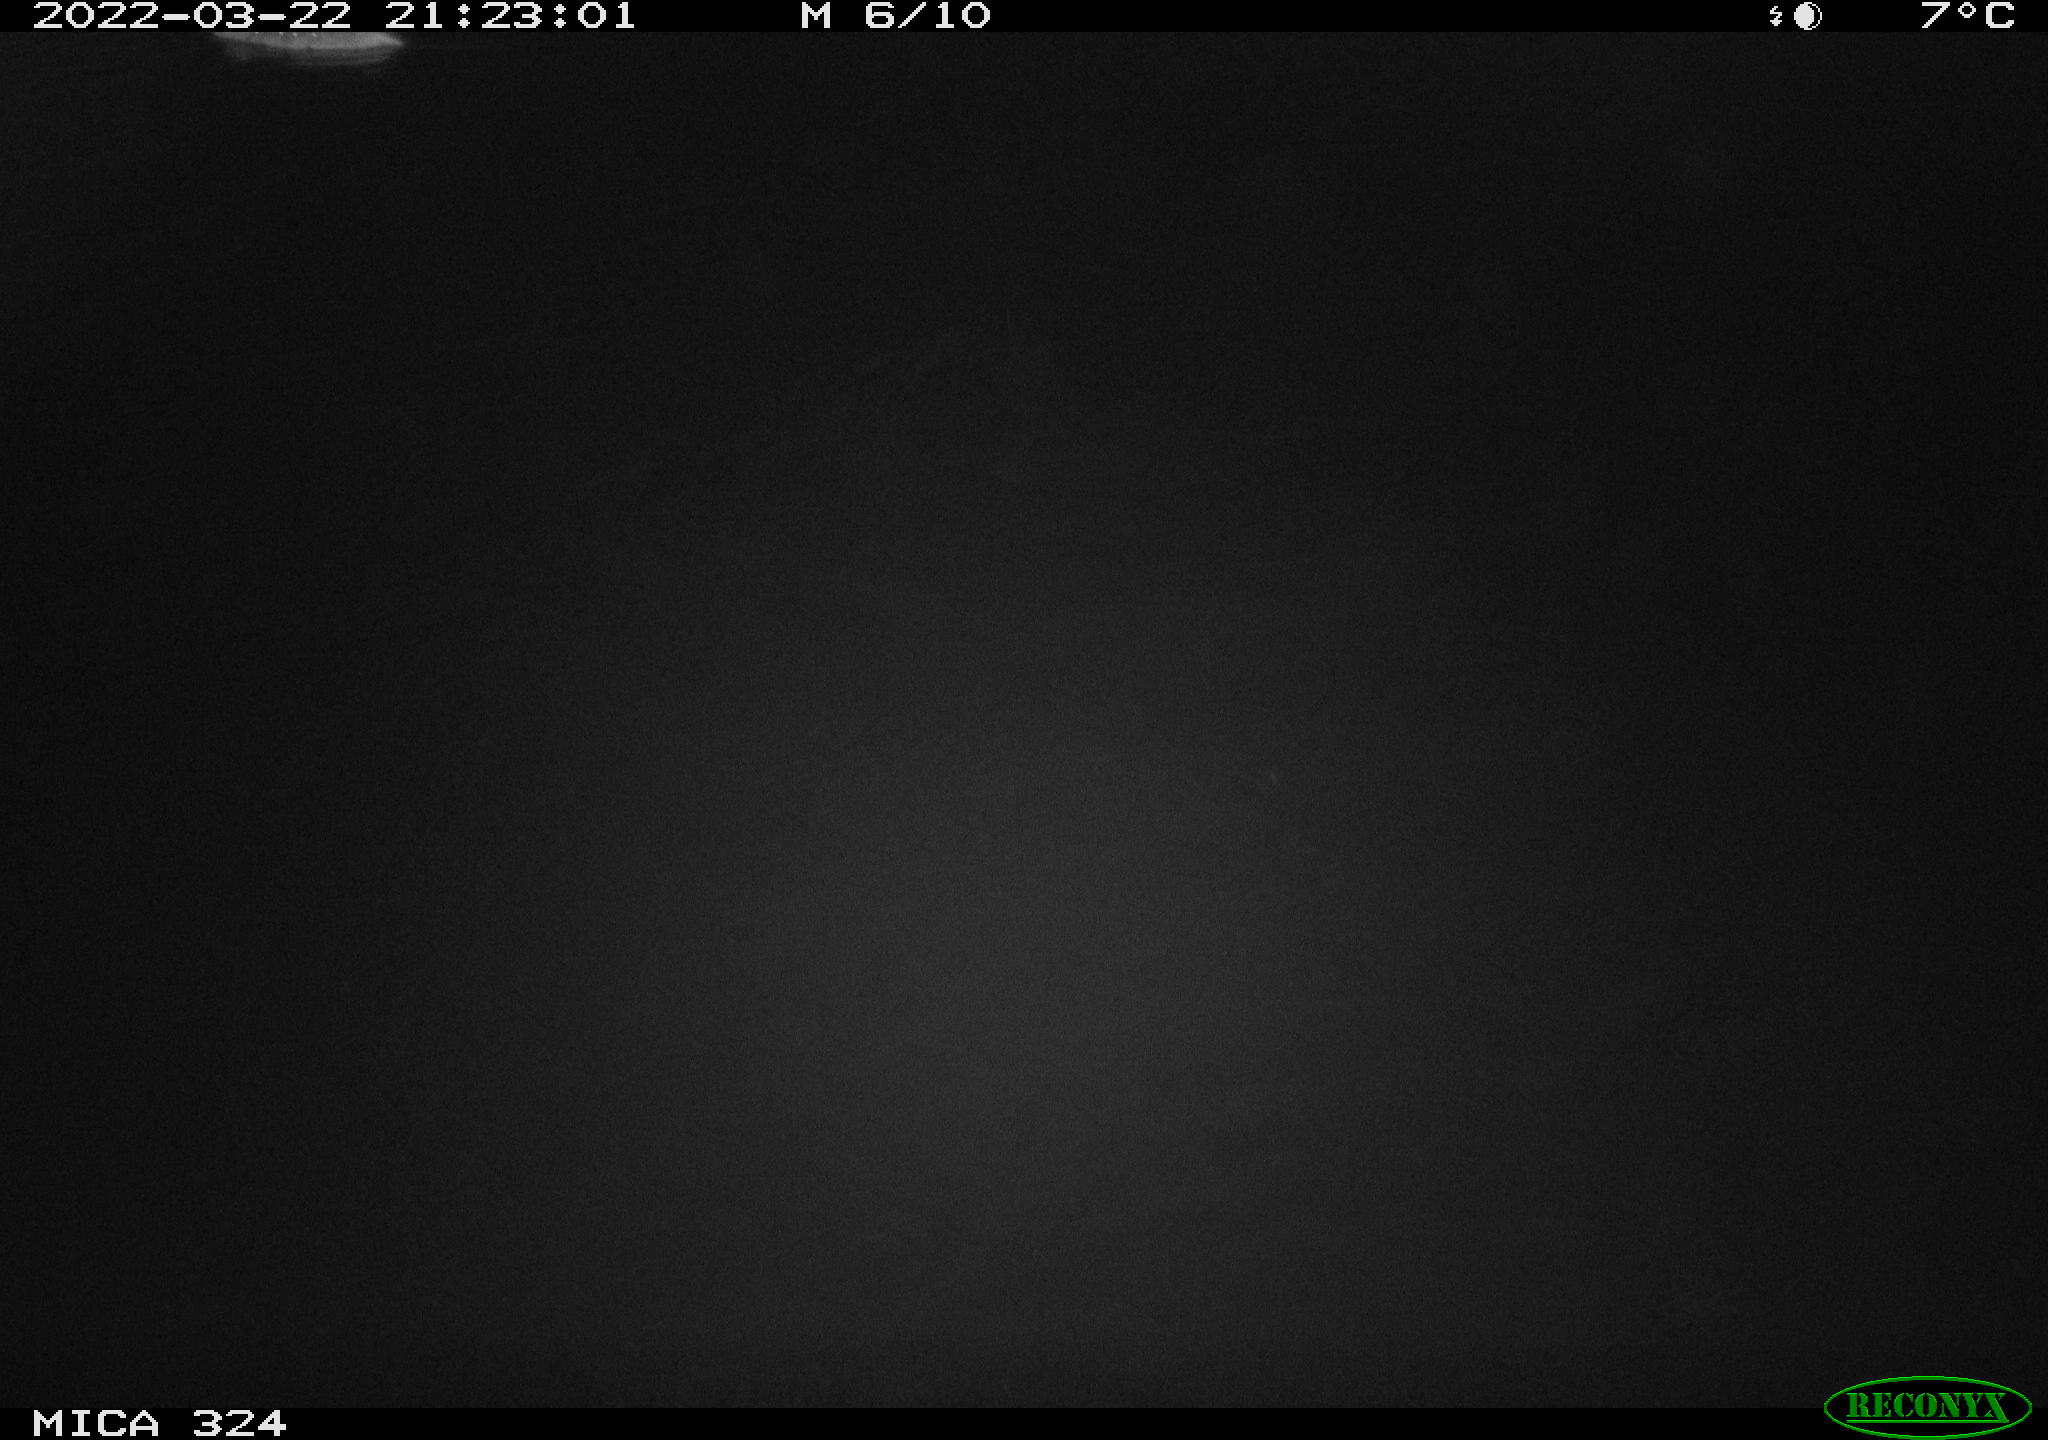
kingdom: Animalia
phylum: Chordata
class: Mammalia
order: Rodentia
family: Cricetidae
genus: Ondatra
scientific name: Ondatra zibethicus
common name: Muskrat
